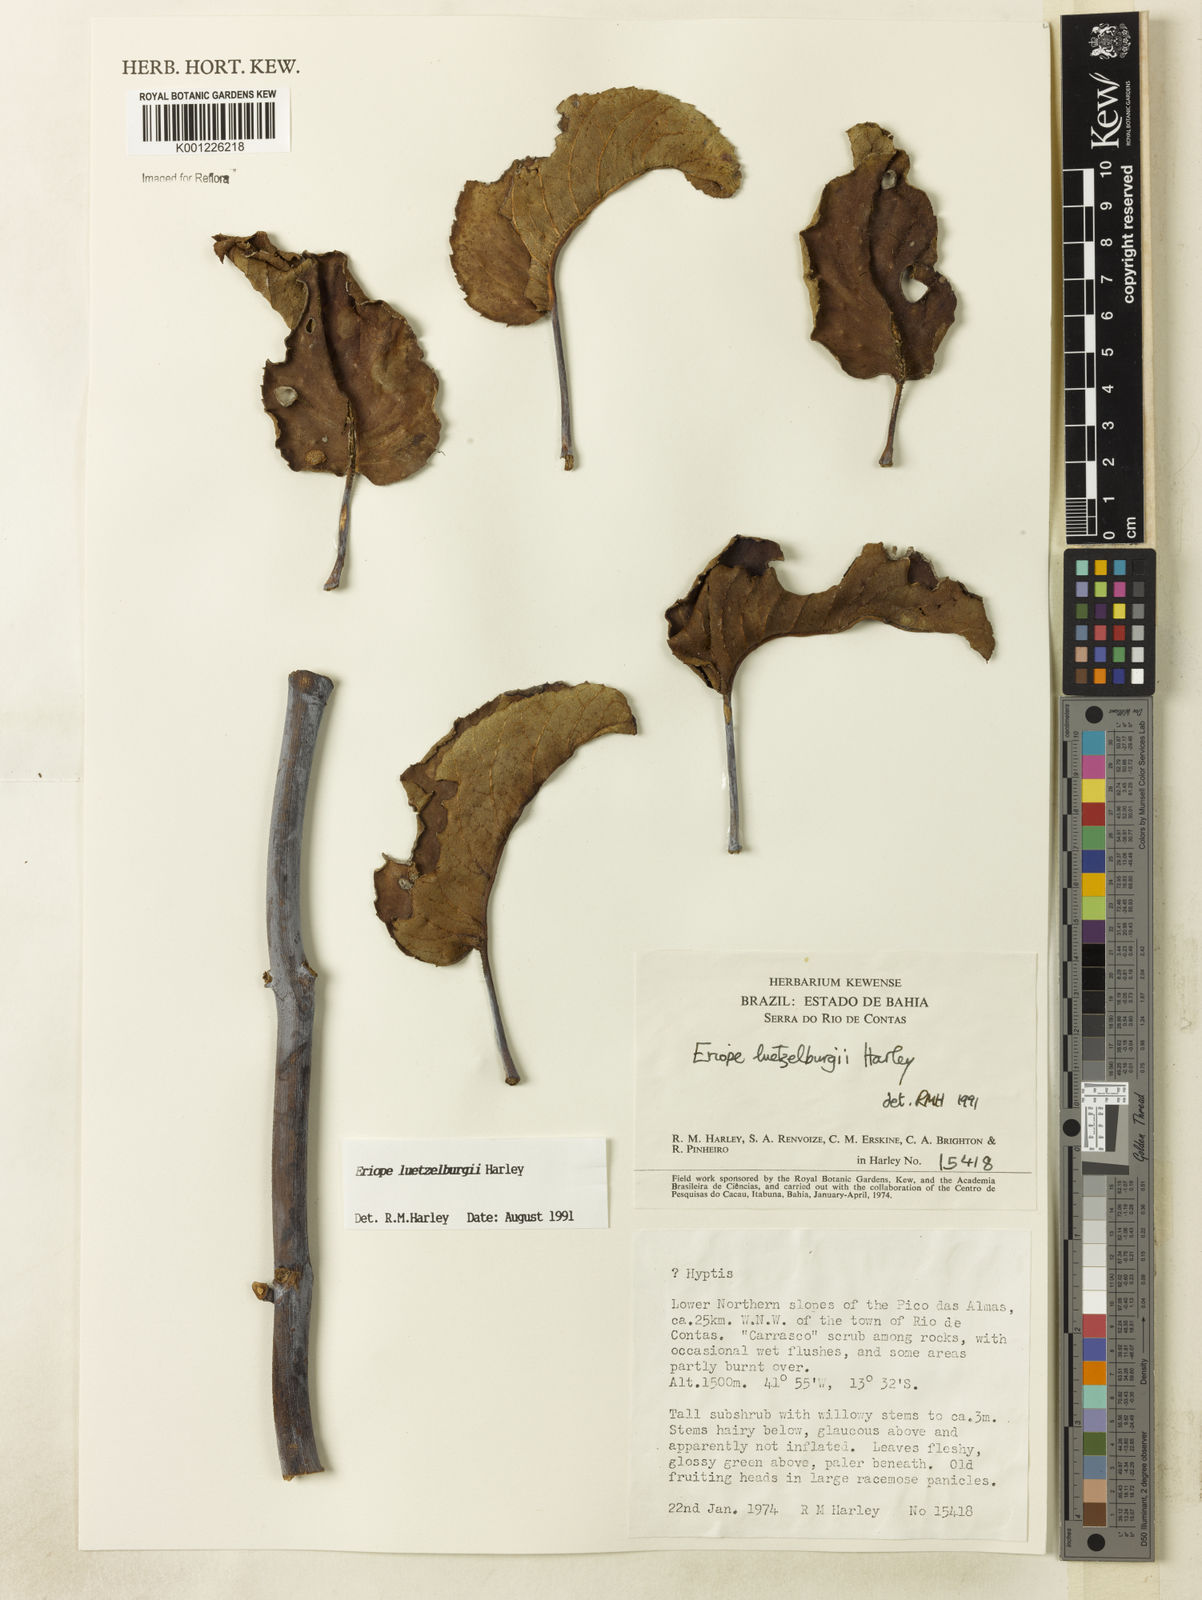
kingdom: Plantae
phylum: Tracheophyta
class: Magnoliopsida
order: Lamiales
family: Lamiaceae
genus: Eriope
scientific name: Eriope luetzelburgii
